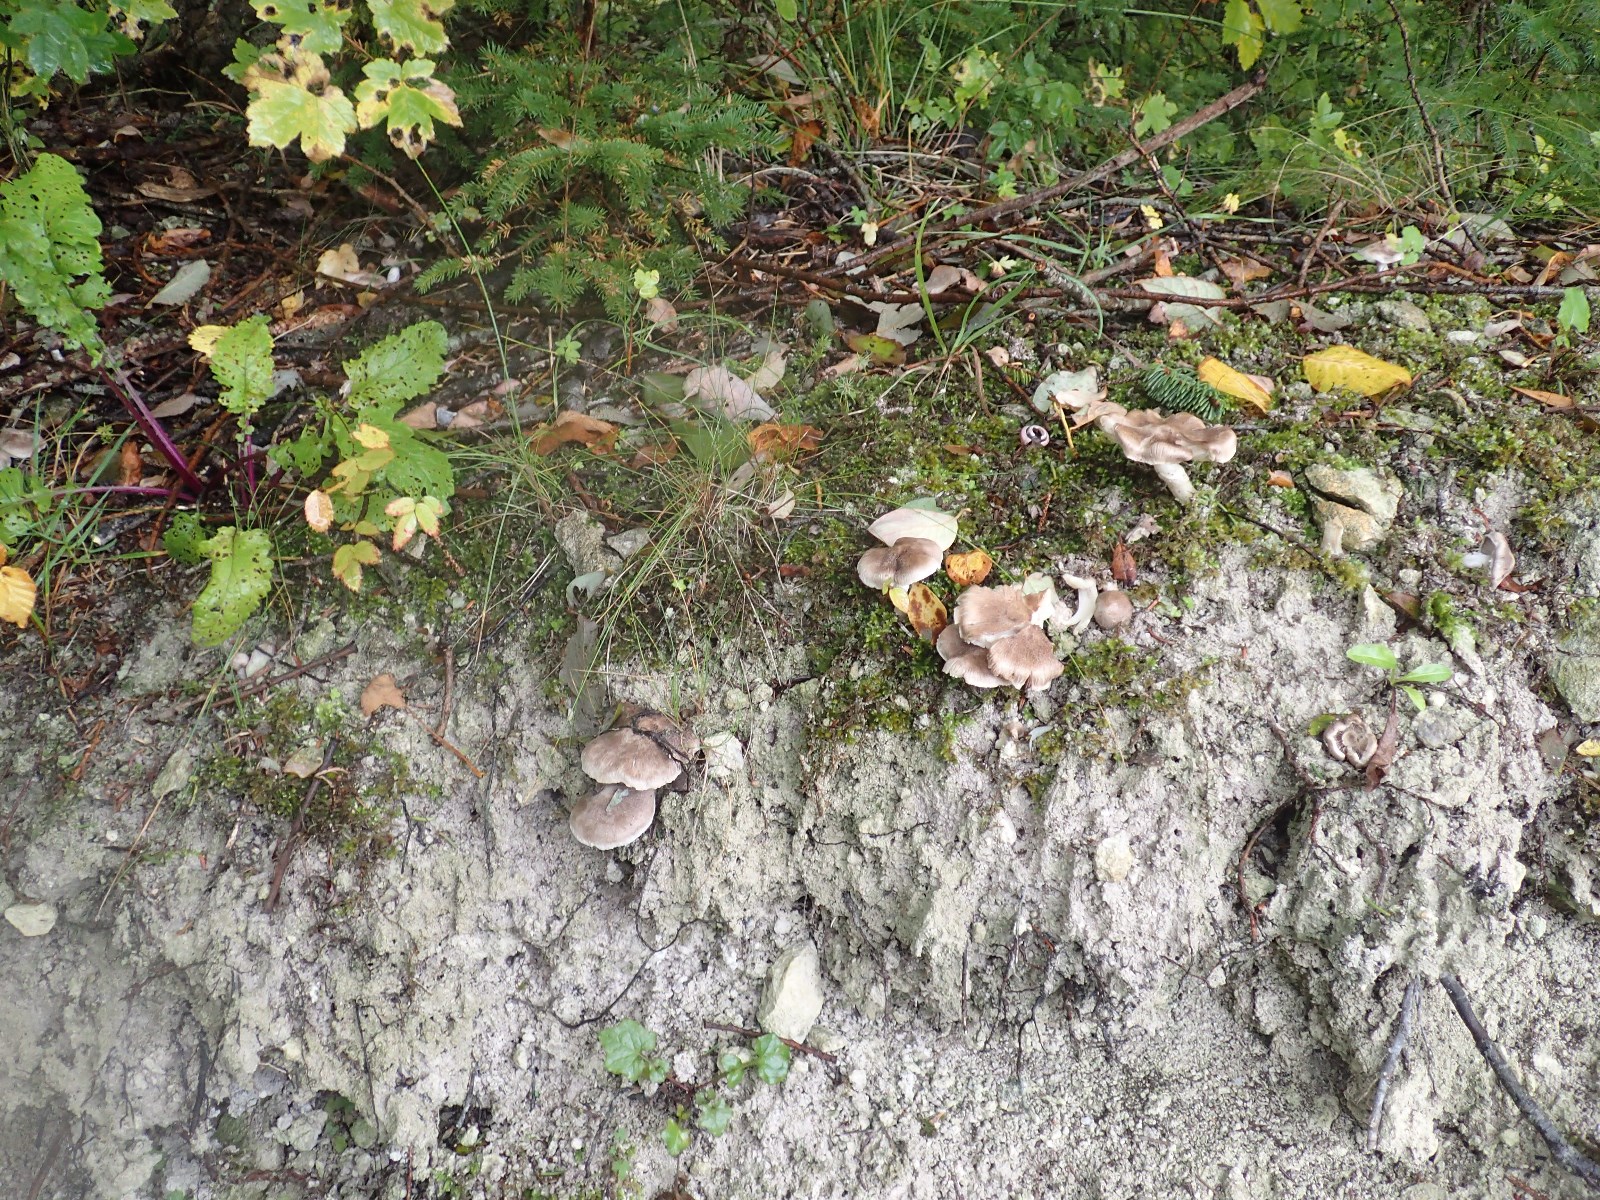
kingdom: Fungi
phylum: Basidiomycota
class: Agaricomycetes
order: Agaricales
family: Tricholomataceae
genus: Tricholoma
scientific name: Tricholoma cingulatum
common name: ring-ridderhat
